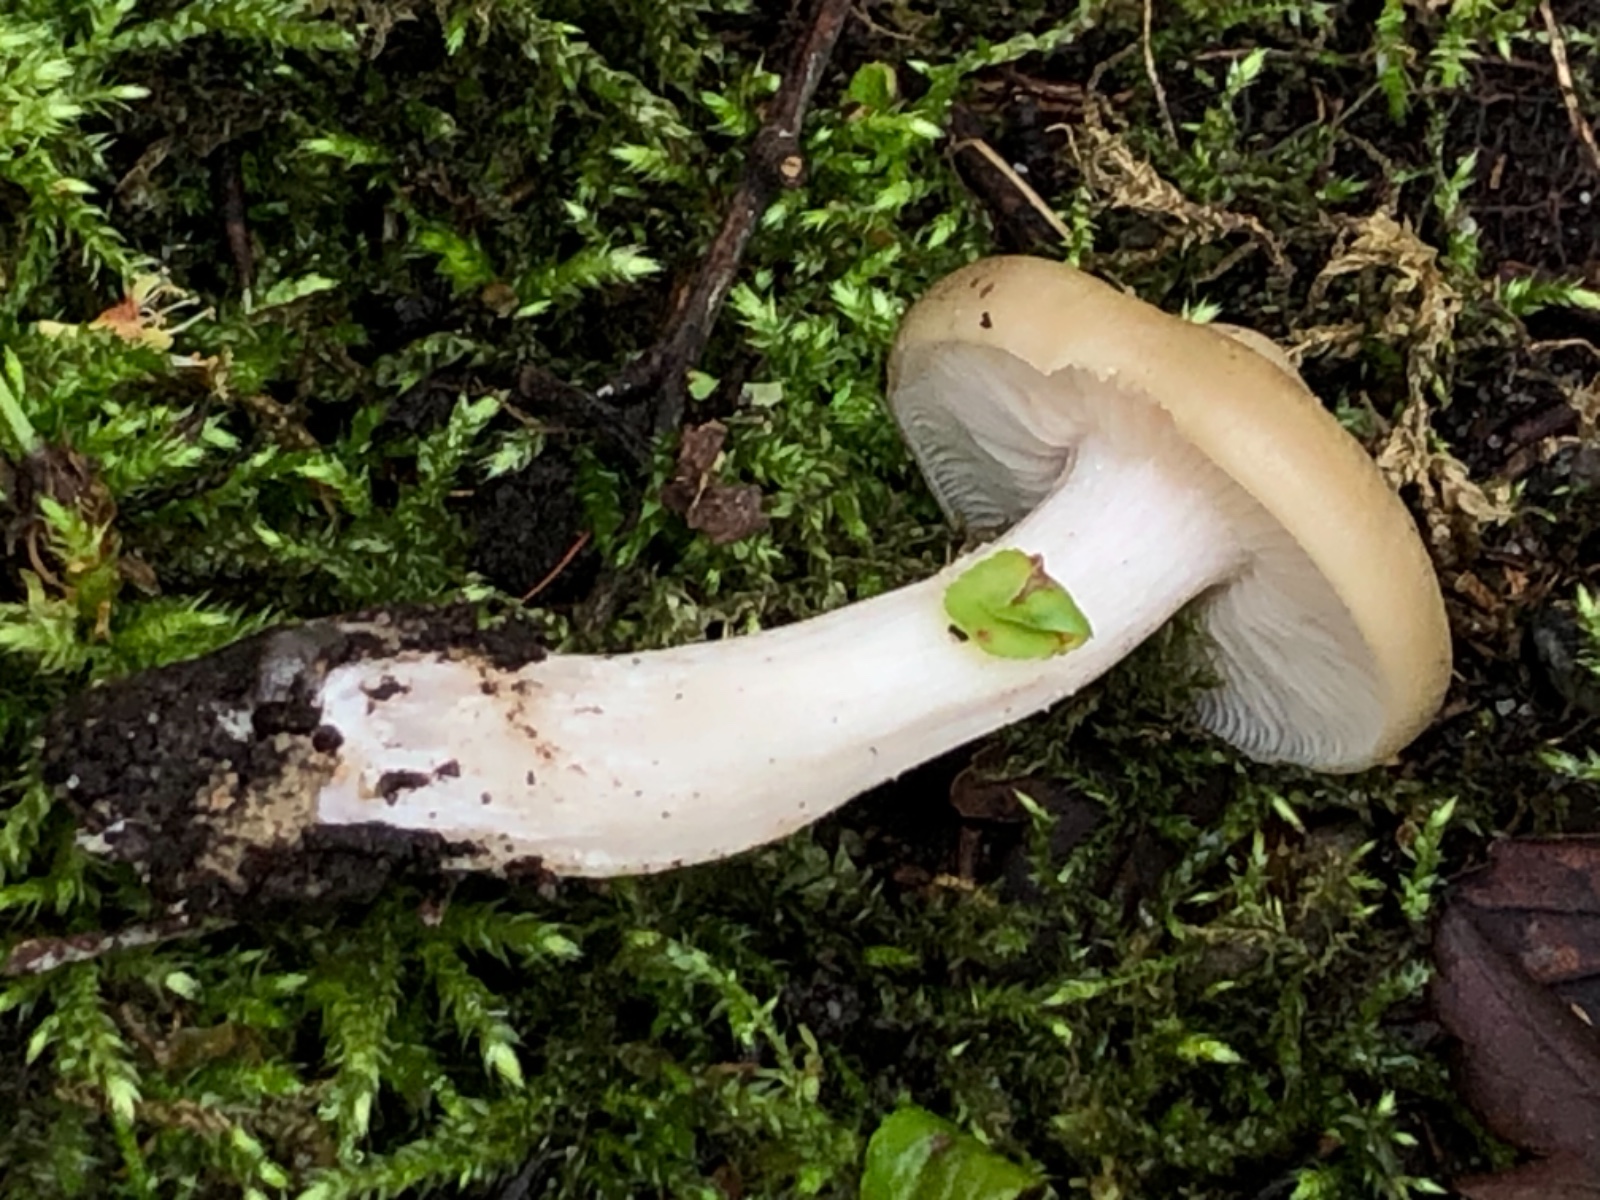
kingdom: Fungi
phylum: Basidiomycota
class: Agaricomycetes
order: Agaricales
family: Entolomataceae
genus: Entoloma
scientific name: Entoloma sepium
